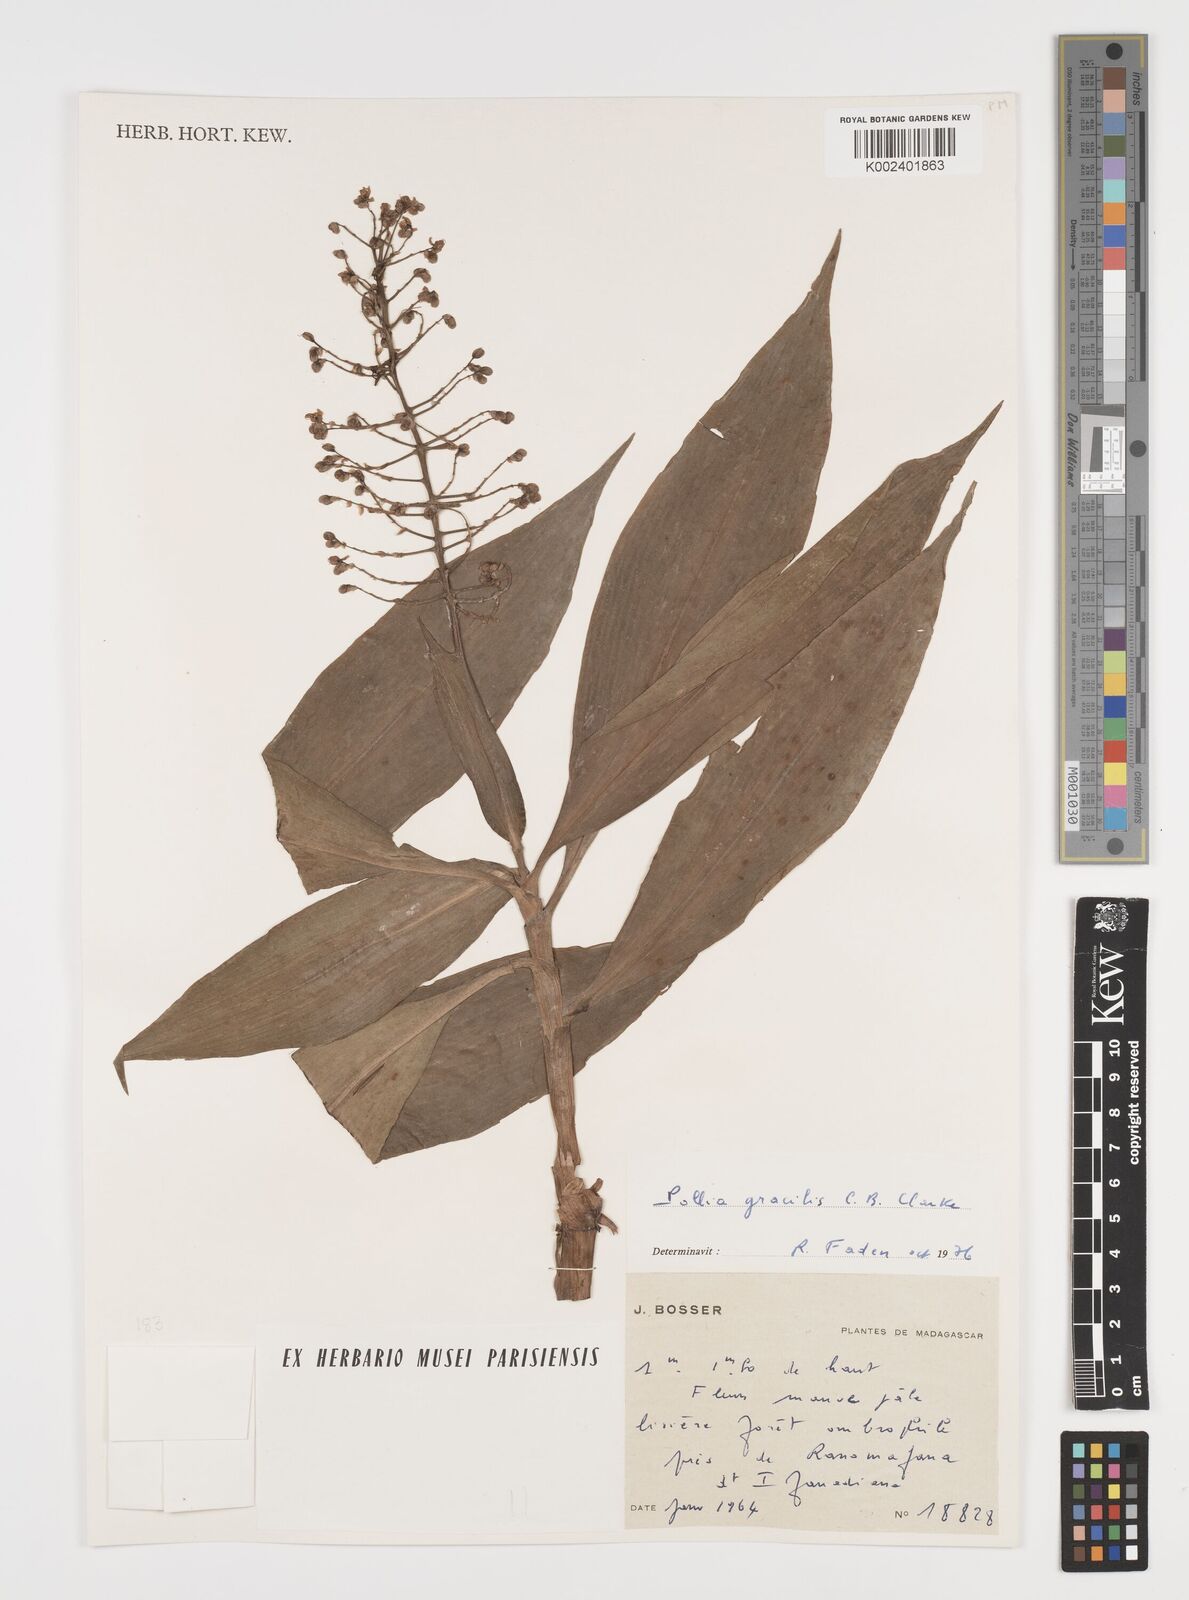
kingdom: Plantae
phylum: Tracheophyta
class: Liliopsida
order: Commelinales
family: Commelinaceae
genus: Pollia
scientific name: Pollia gracilis
